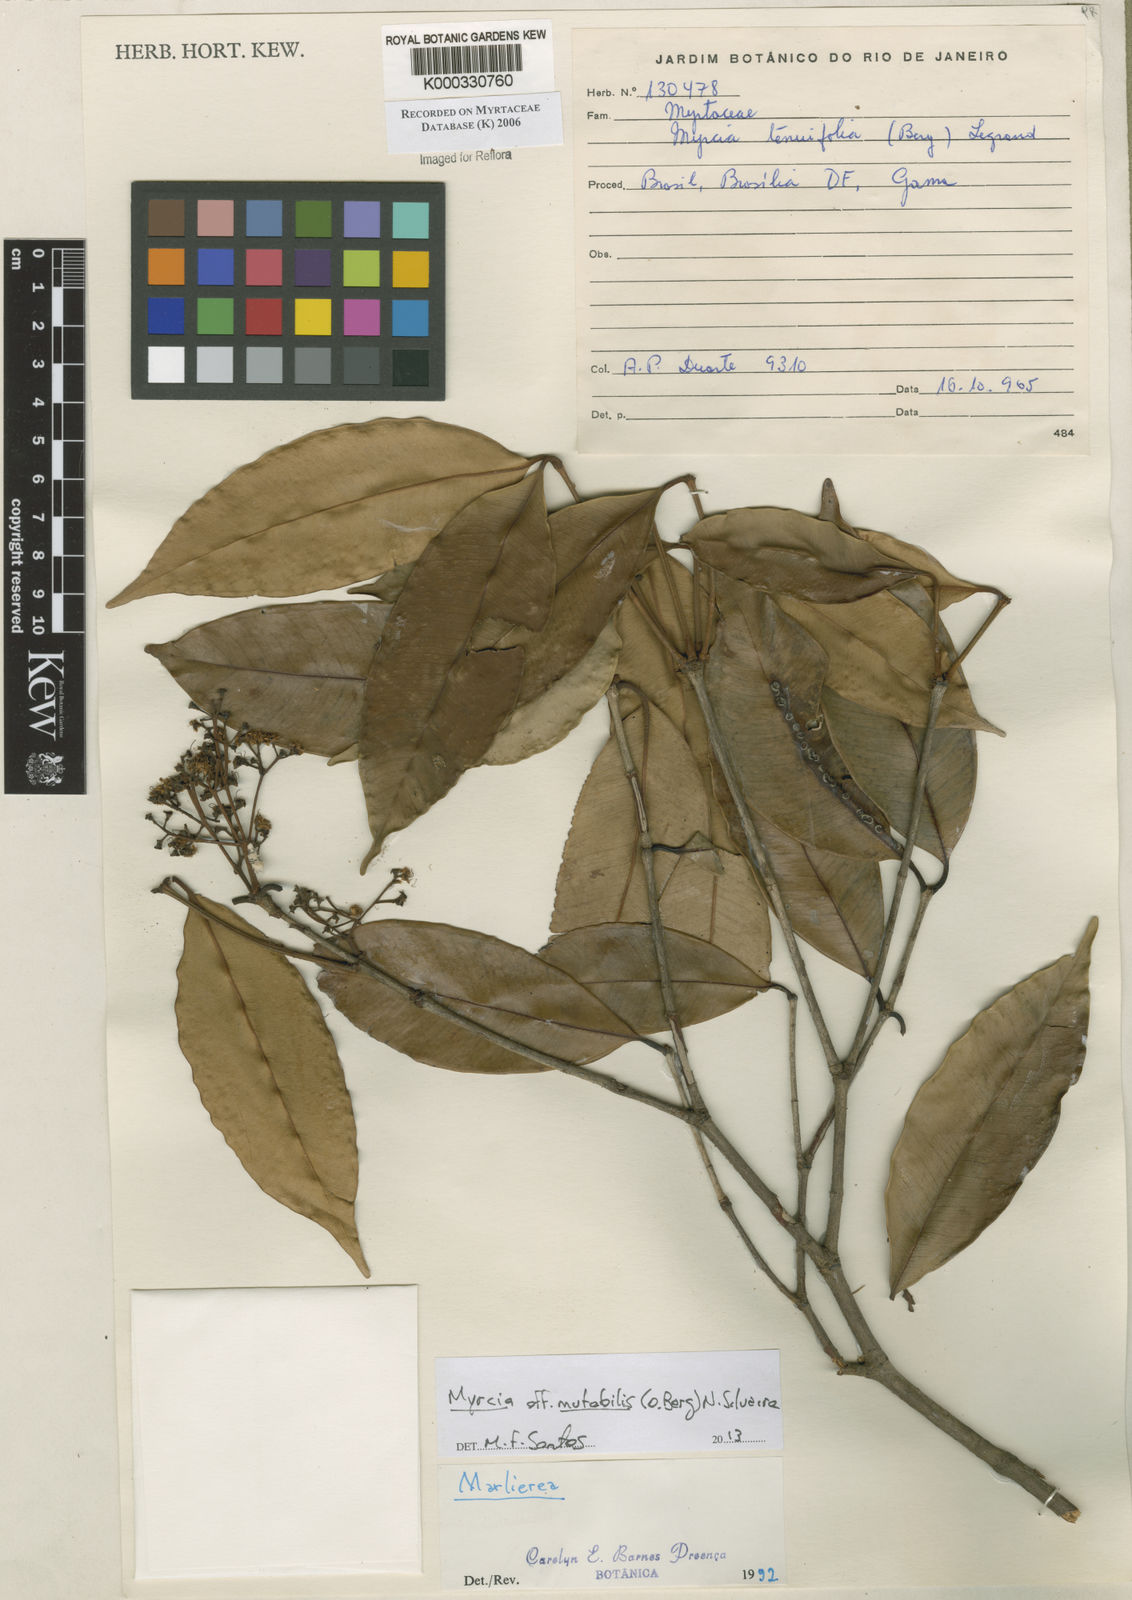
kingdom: Plantae
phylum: Tracheophyta
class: Magnoliopsida
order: Myrtales
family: Myrtaceae
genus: Marlierea
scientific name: Marlierea
